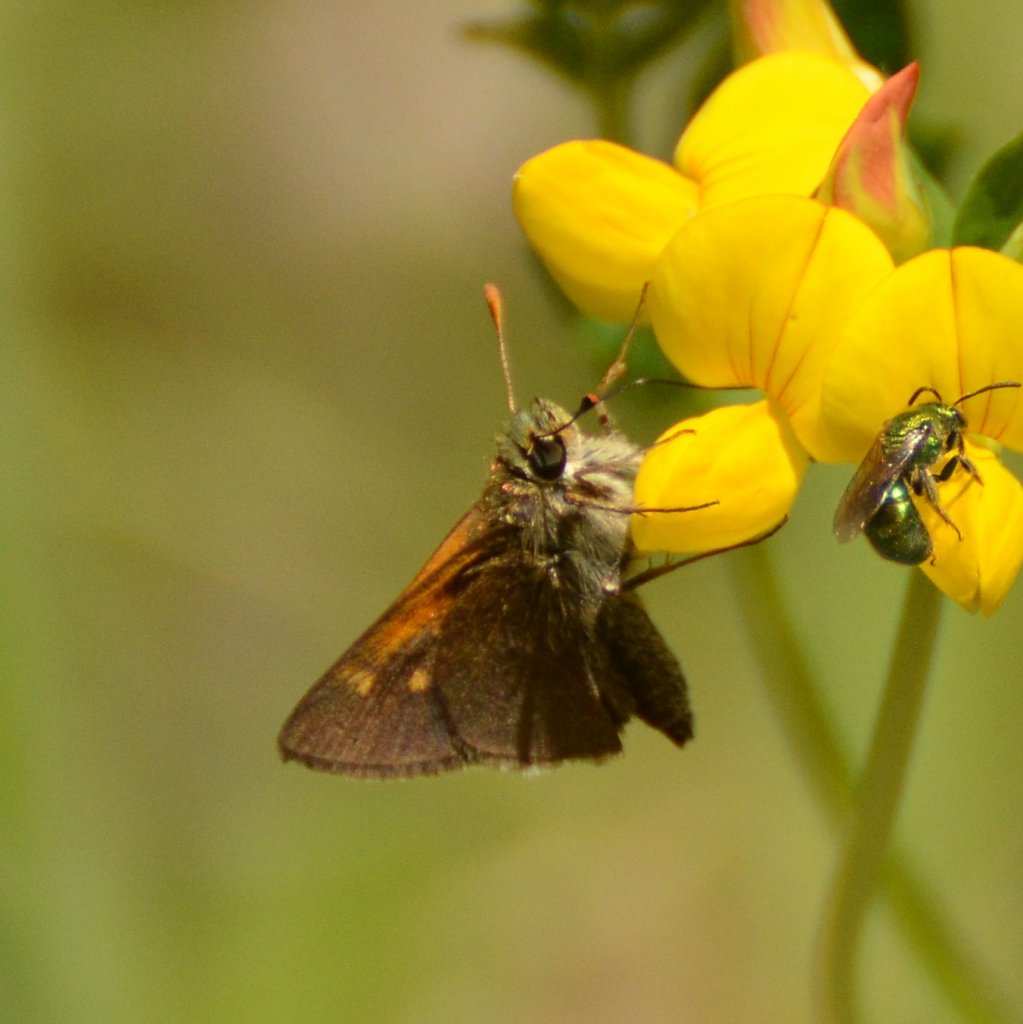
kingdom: Animalia
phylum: Arthropoda
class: Insecta
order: Lepidoptera
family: Hesperiidae
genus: Polites
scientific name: Polites themistocles
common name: Tawny-edged Skipper
